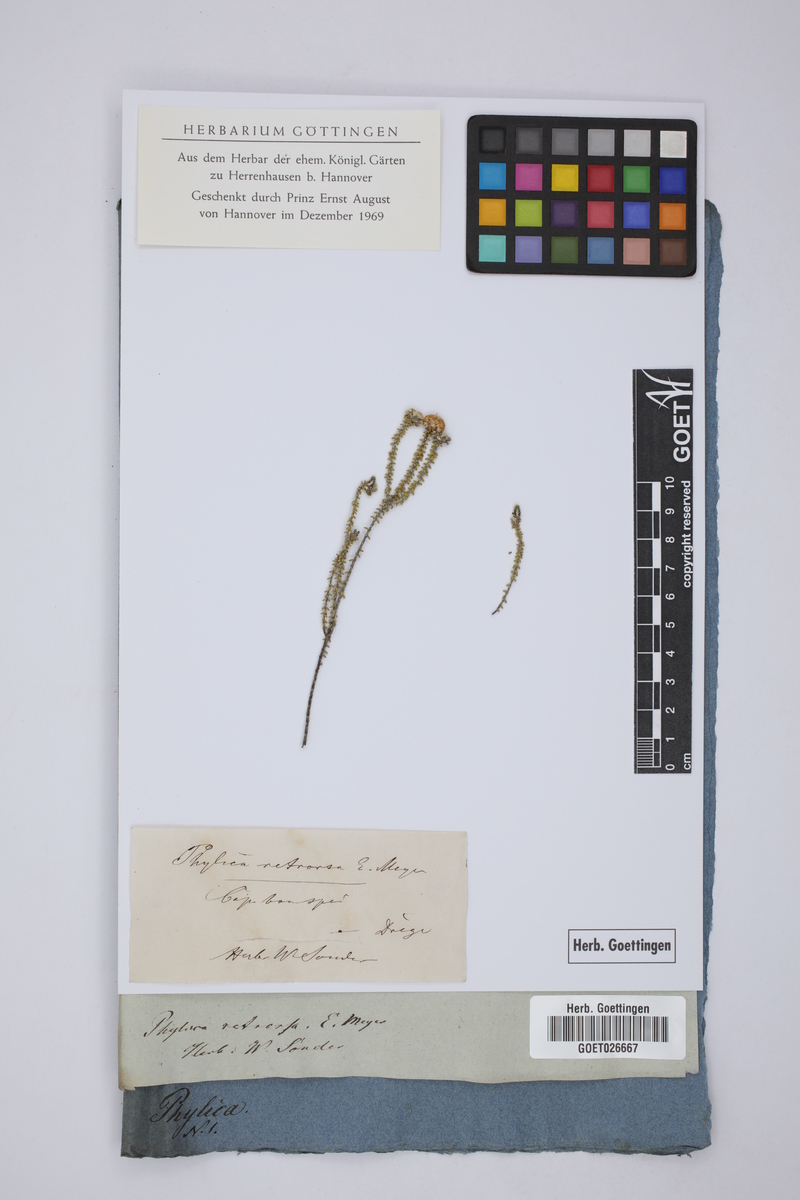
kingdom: Plantae
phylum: Tracheophyta
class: Magnoliopsida
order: Rosales
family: Rhamnaceae
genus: Phylica
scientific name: Phylica retrorsa
